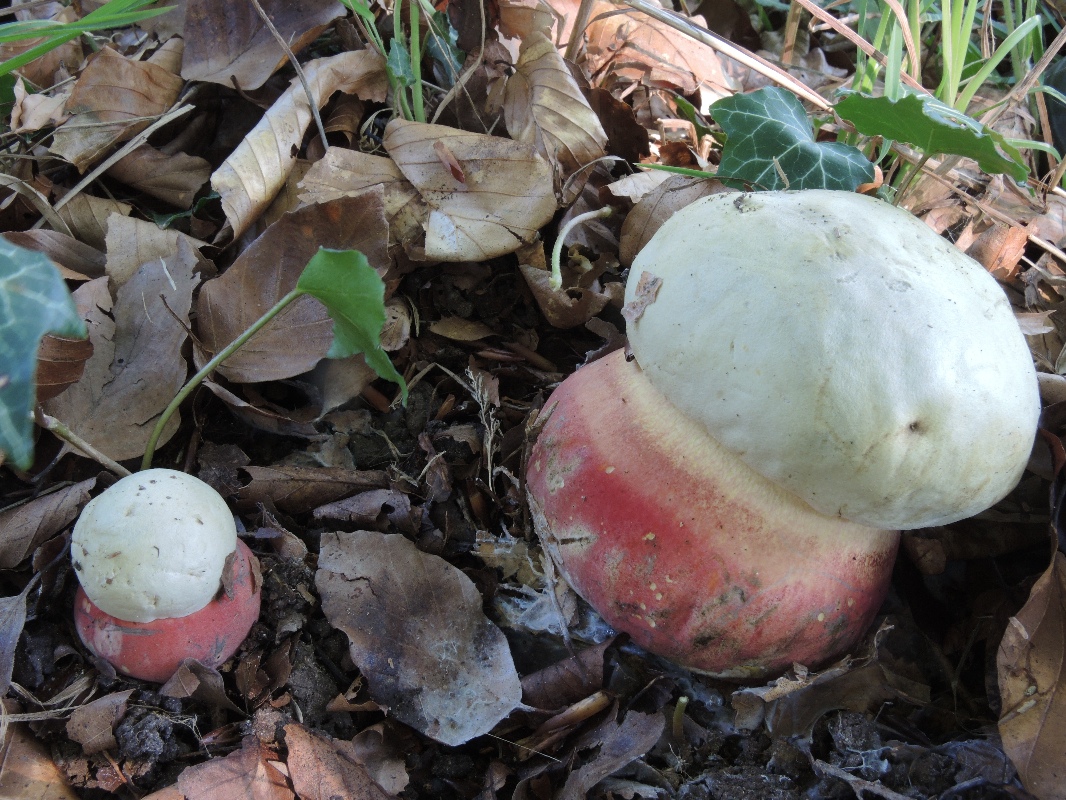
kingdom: Fungi
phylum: Basidiomycota
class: Agaricomycetes
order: Boletales
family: Boletaceae
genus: Rubroboletus
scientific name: Rubroboletus satanas
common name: Satans rørhat
